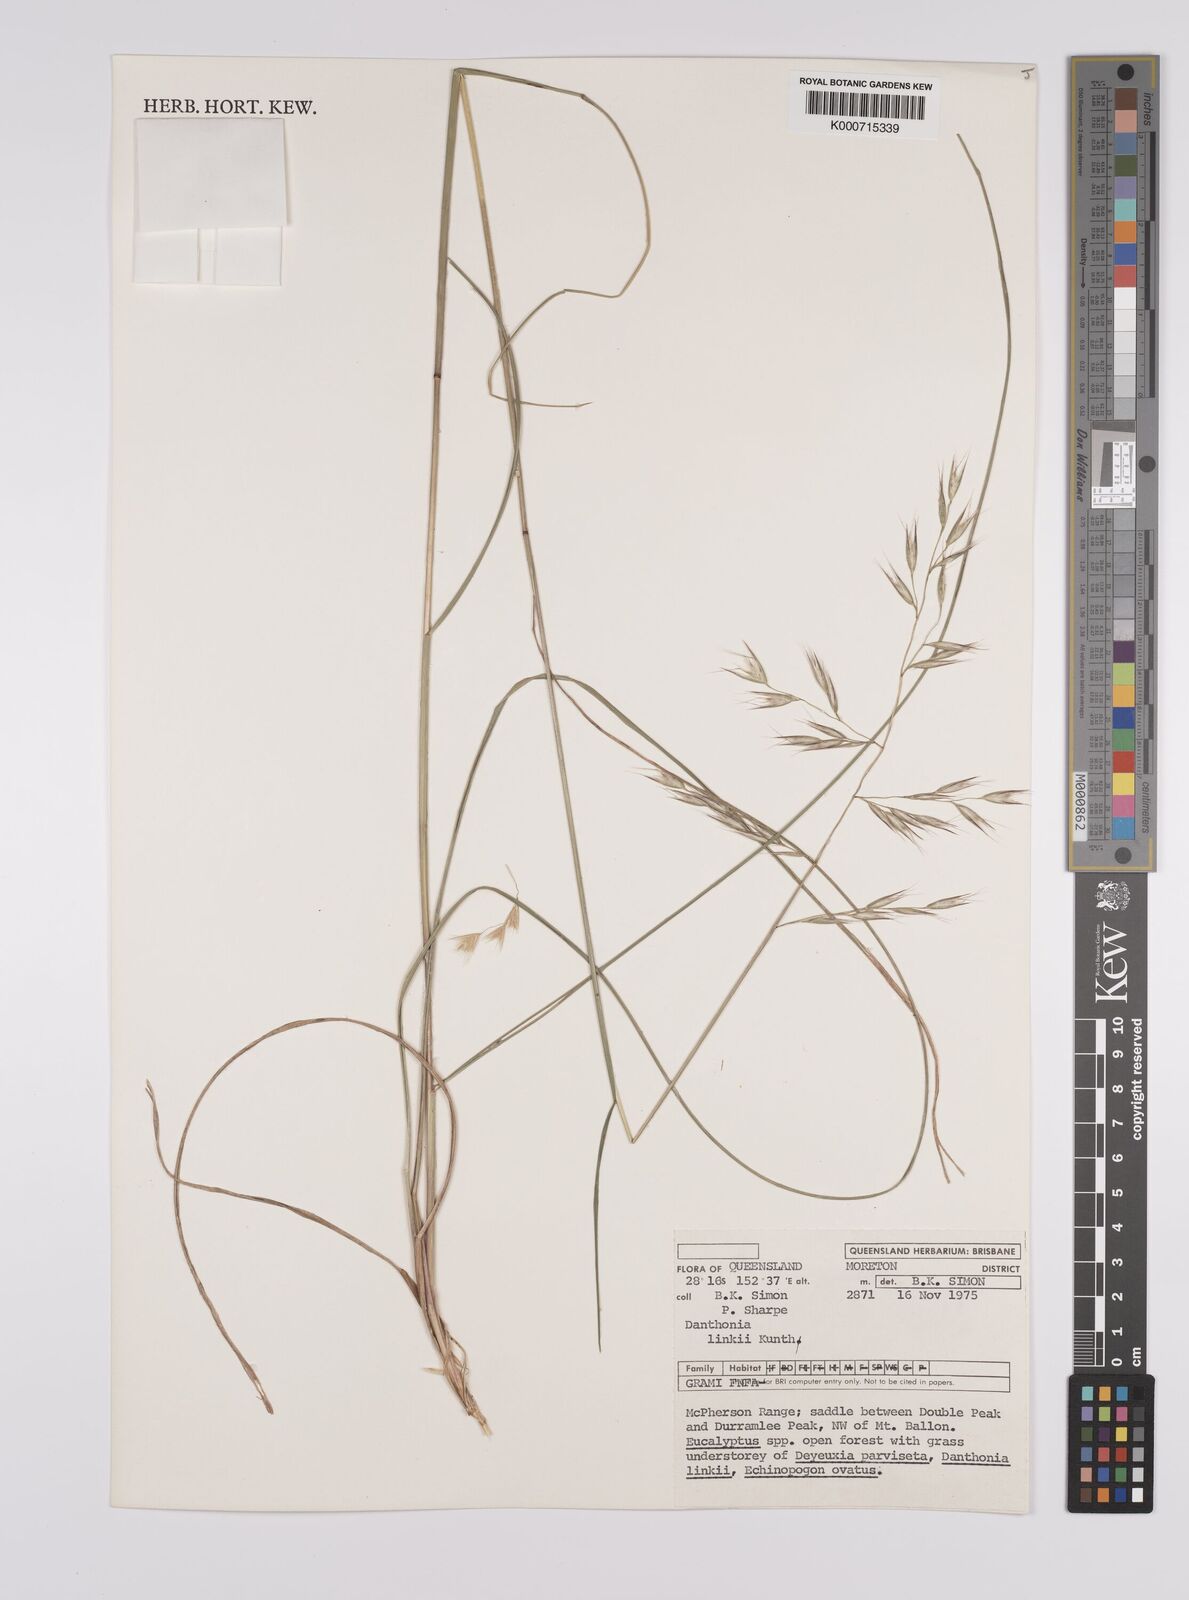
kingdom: Plantae
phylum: Tracheophyta
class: Liliopsida
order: Poales
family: Poaceae
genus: Rytidosperma
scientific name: Rytidosperma bipartitum
